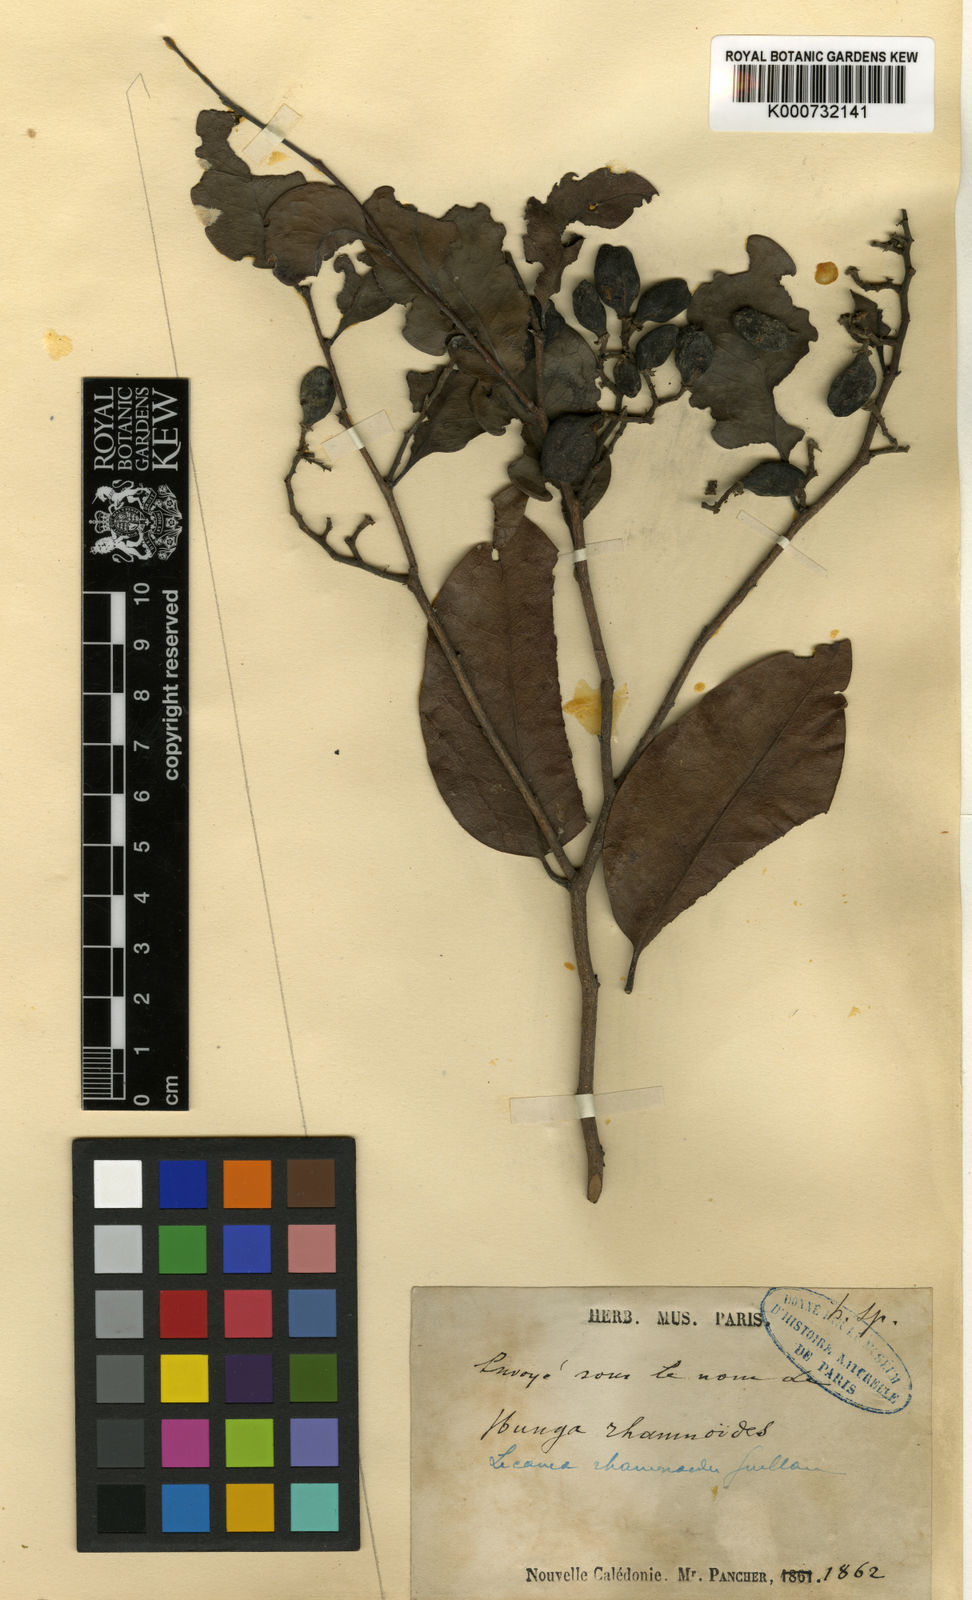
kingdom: Plantae
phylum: Tracheophyta
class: Magnoliopsida
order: Malpighiales
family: Chrysobalanaceae
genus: Hunga
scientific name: Hunga rhamnoides
